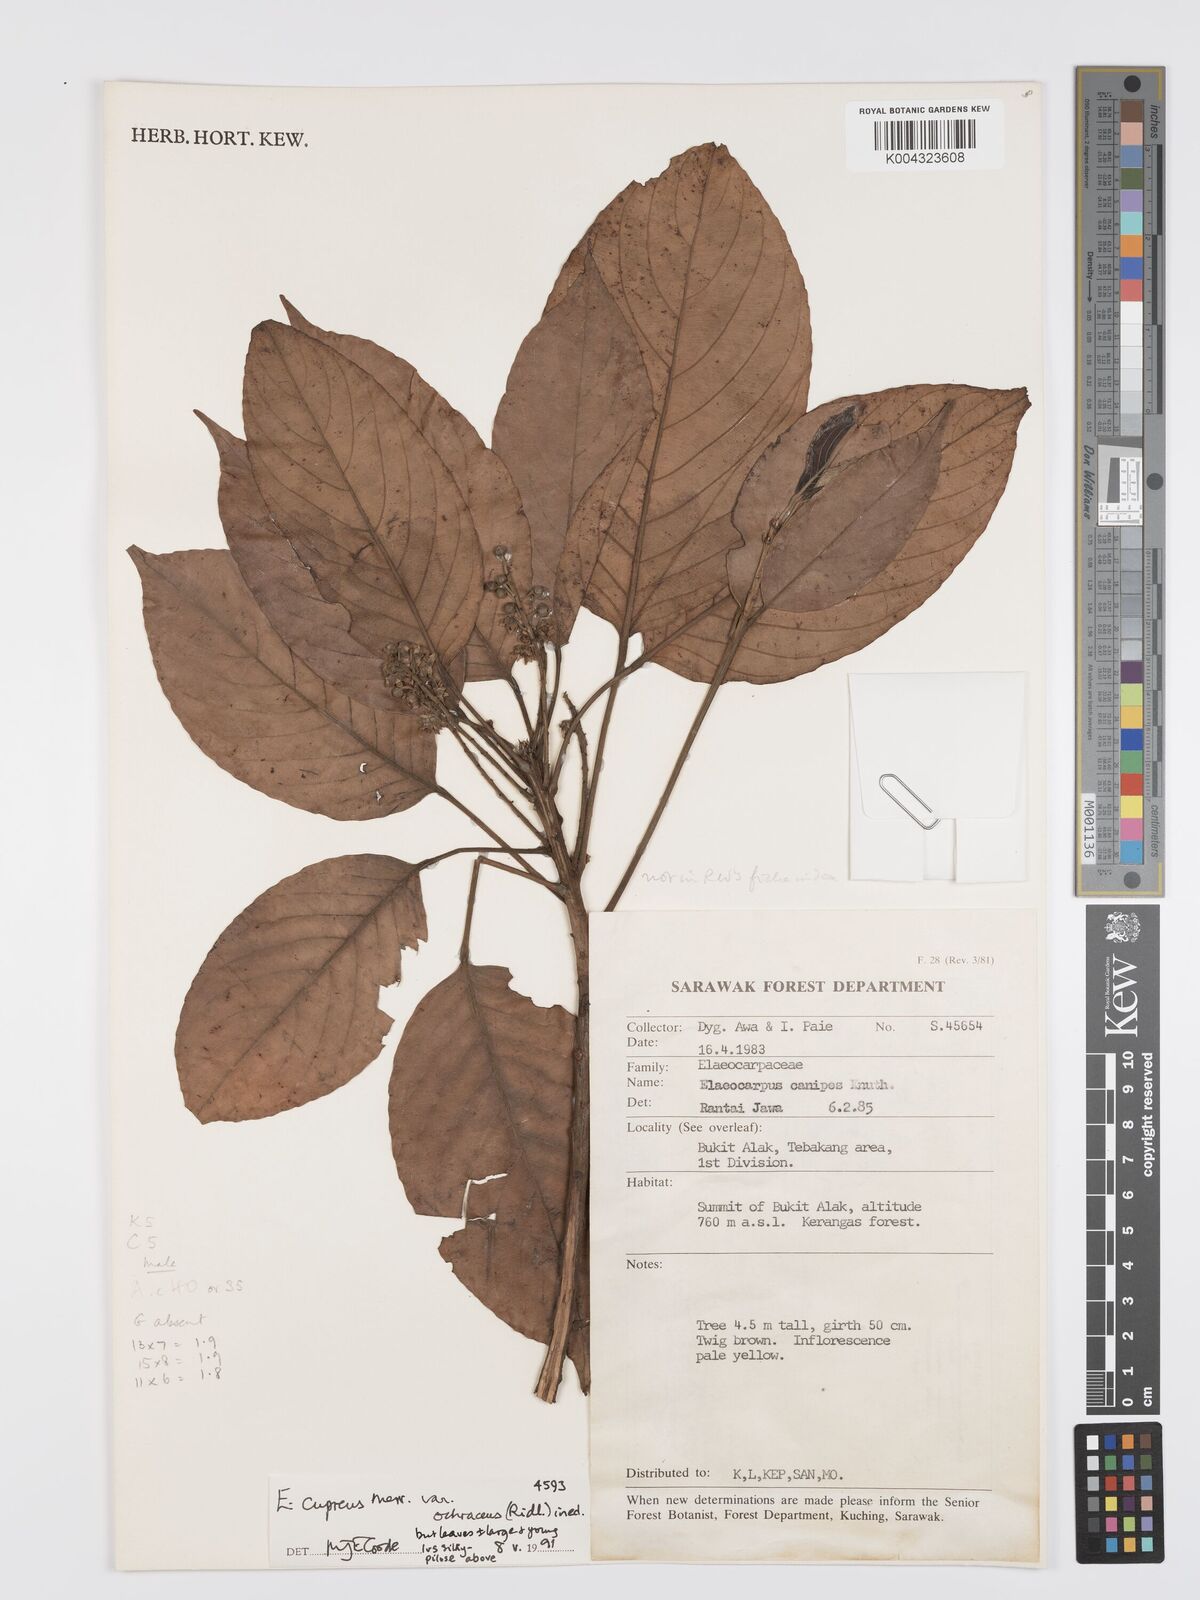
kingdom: Plantae
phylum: Tracheophyta
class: Magnoliopsida
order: Oxalidales
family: Elaeocarpaceae
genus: Elaeocarpus
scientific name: Elaeocarpus cupreus
